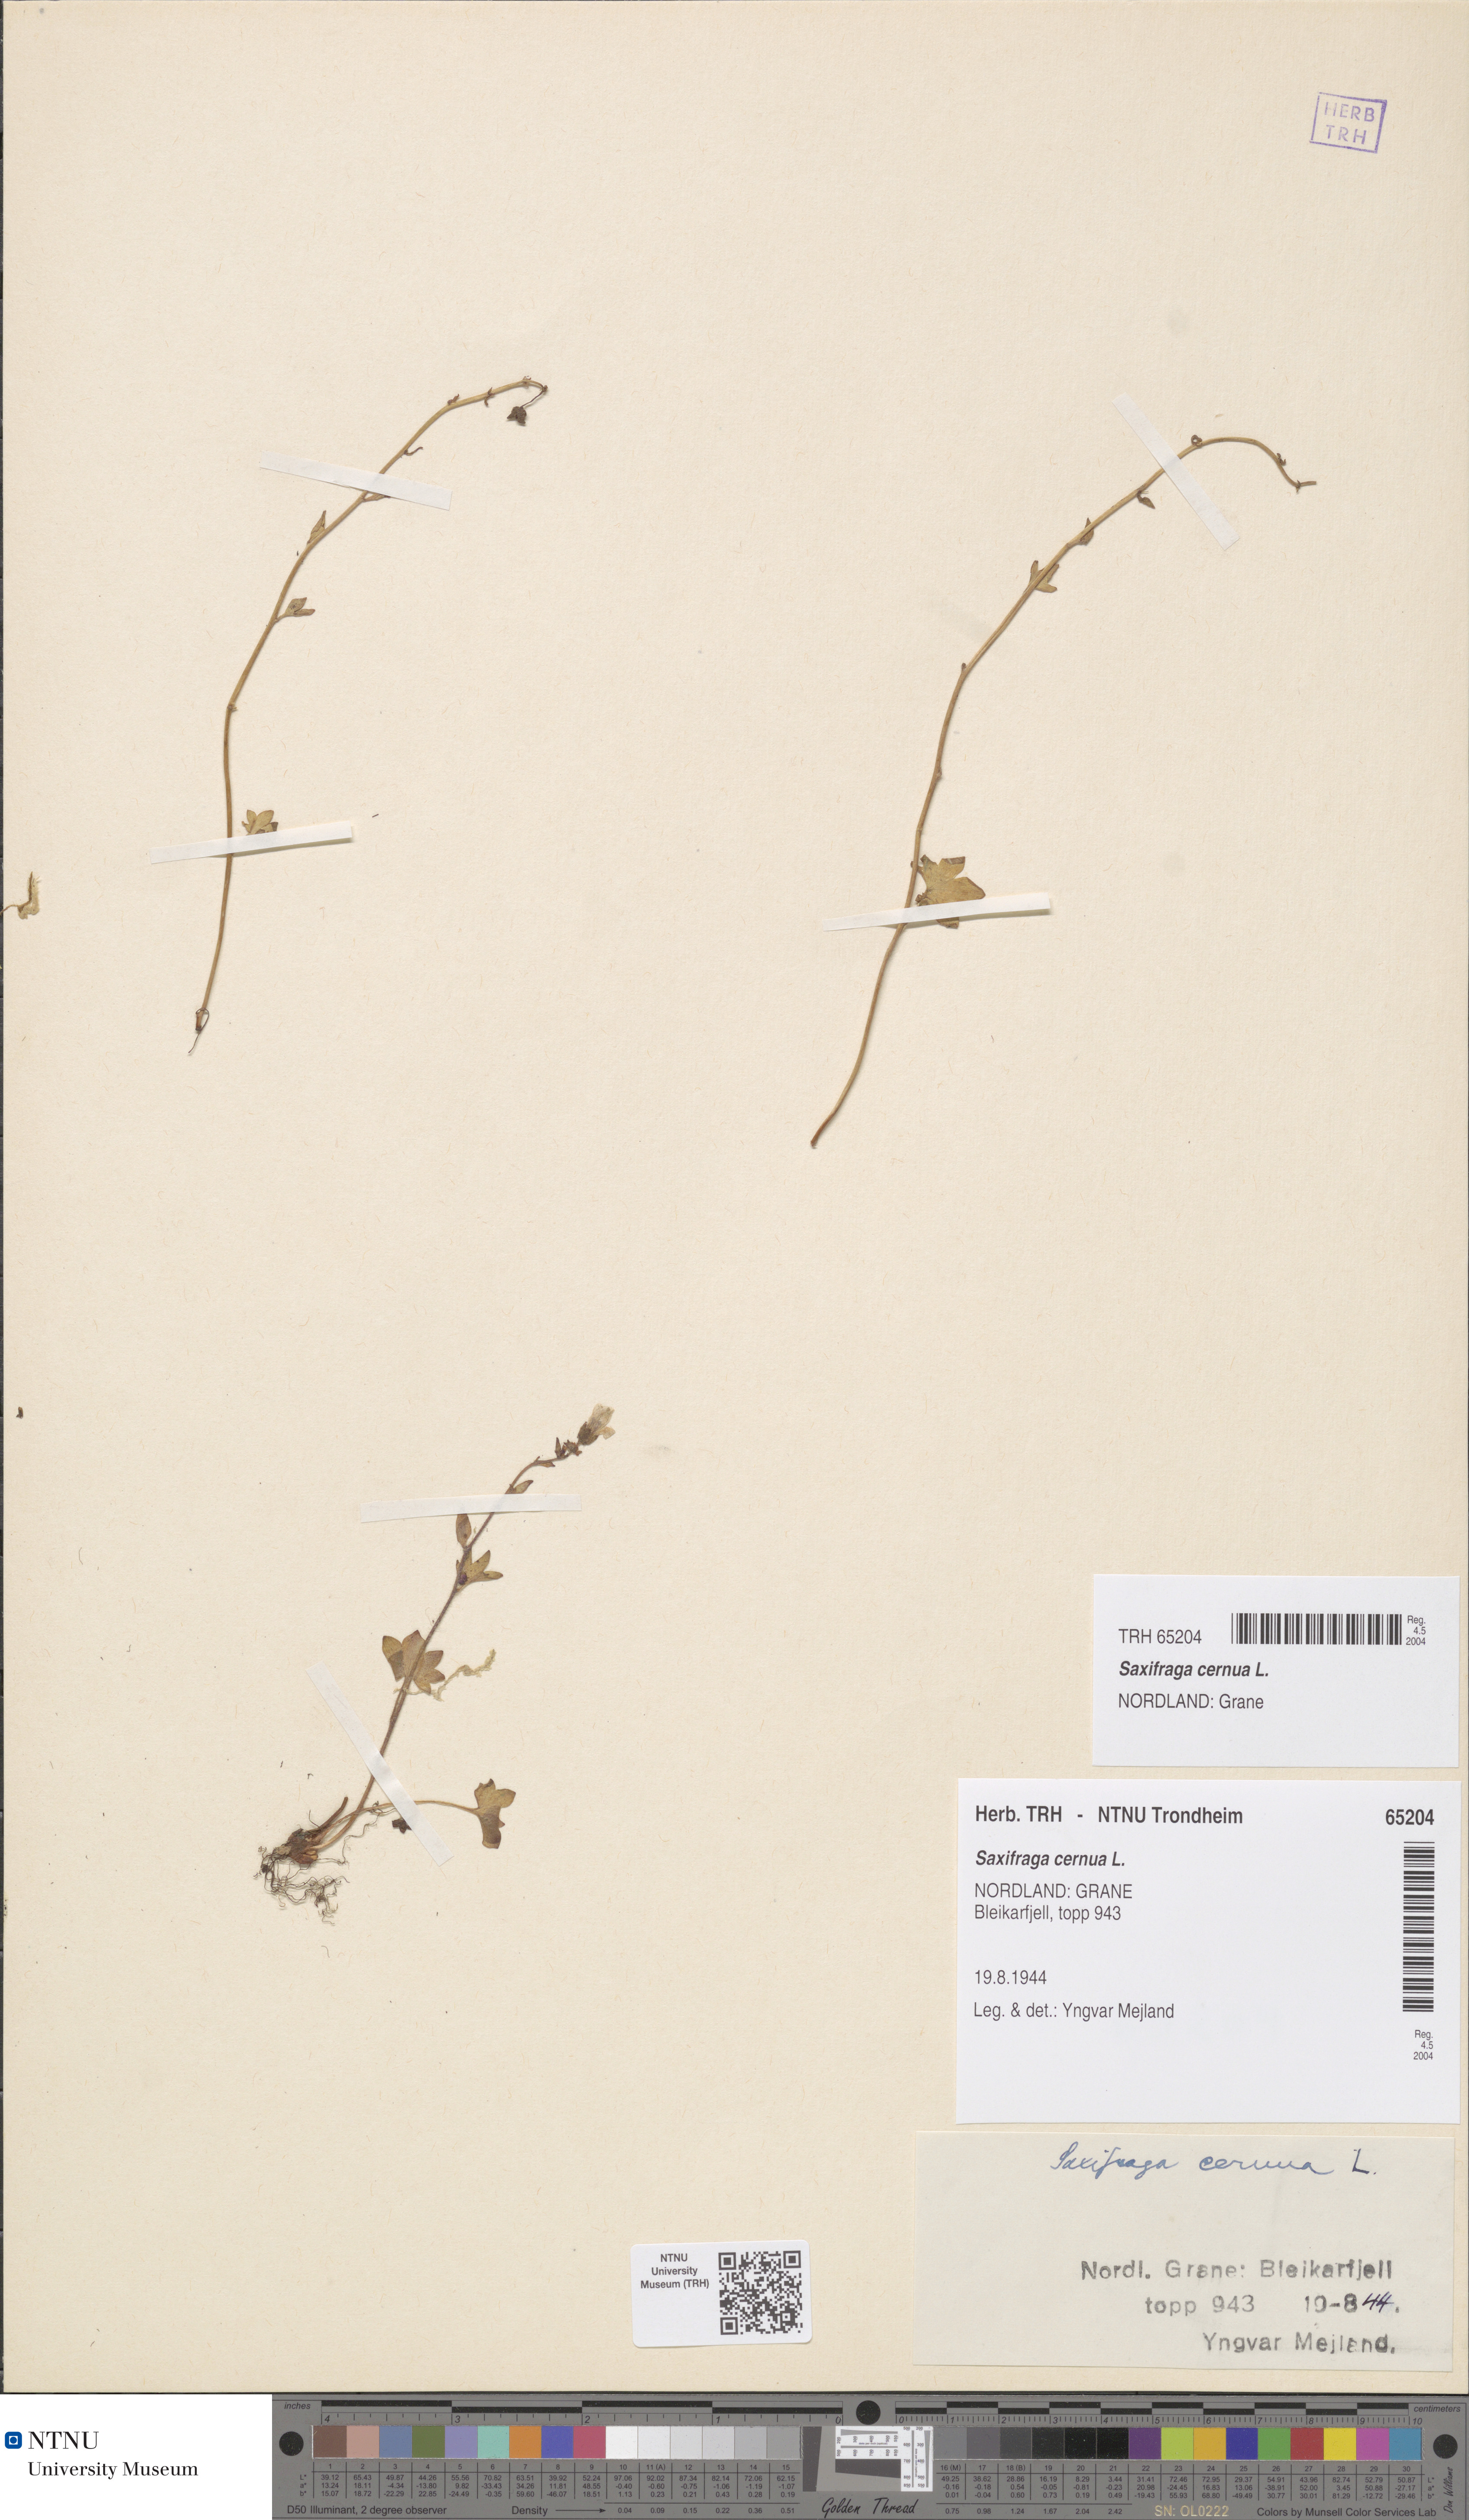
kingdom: Plantae
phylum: Tracheophyta
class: Magnoliopsida
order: Saxifragales
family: Saxifragaceae
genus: Saxifraga
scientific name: Saxifraga cernua
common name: Drooping saxifrage
